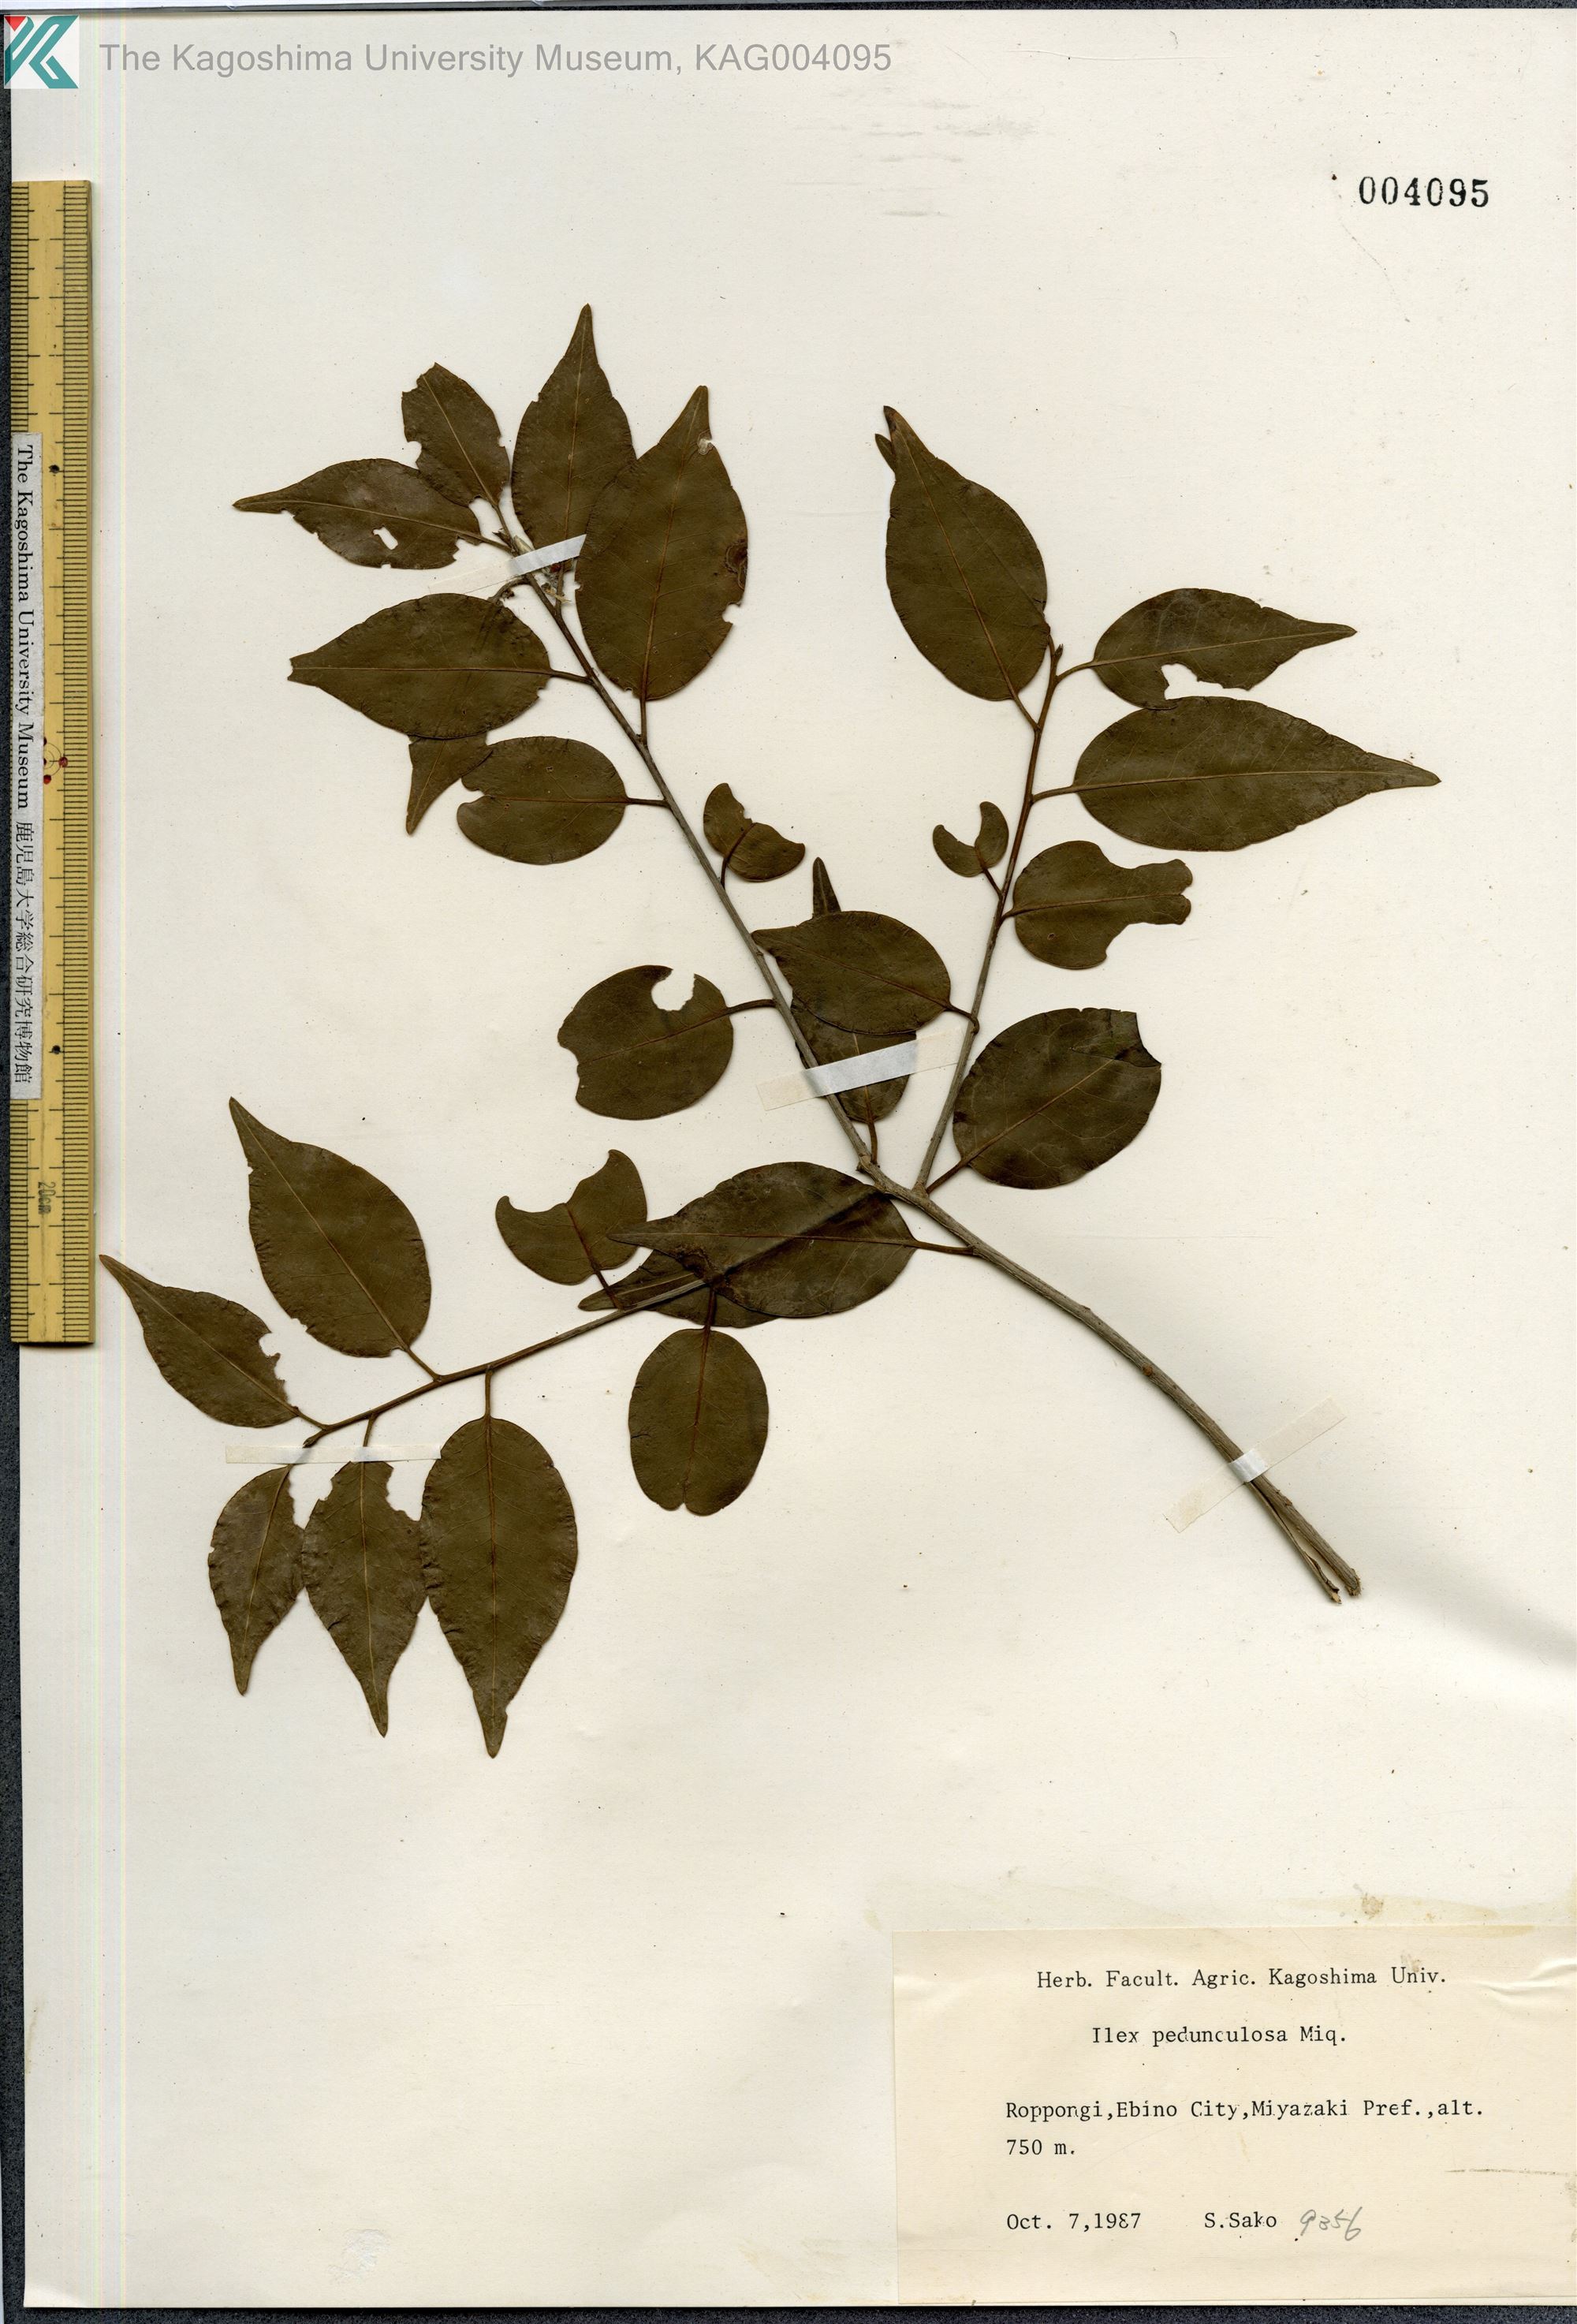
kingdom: Plantae
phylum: Tracheophyta
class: Magnoliopsida
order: Aquifoliales
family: Aquifoliaceae
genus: Ilex
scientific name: Ilex pedunculosa
